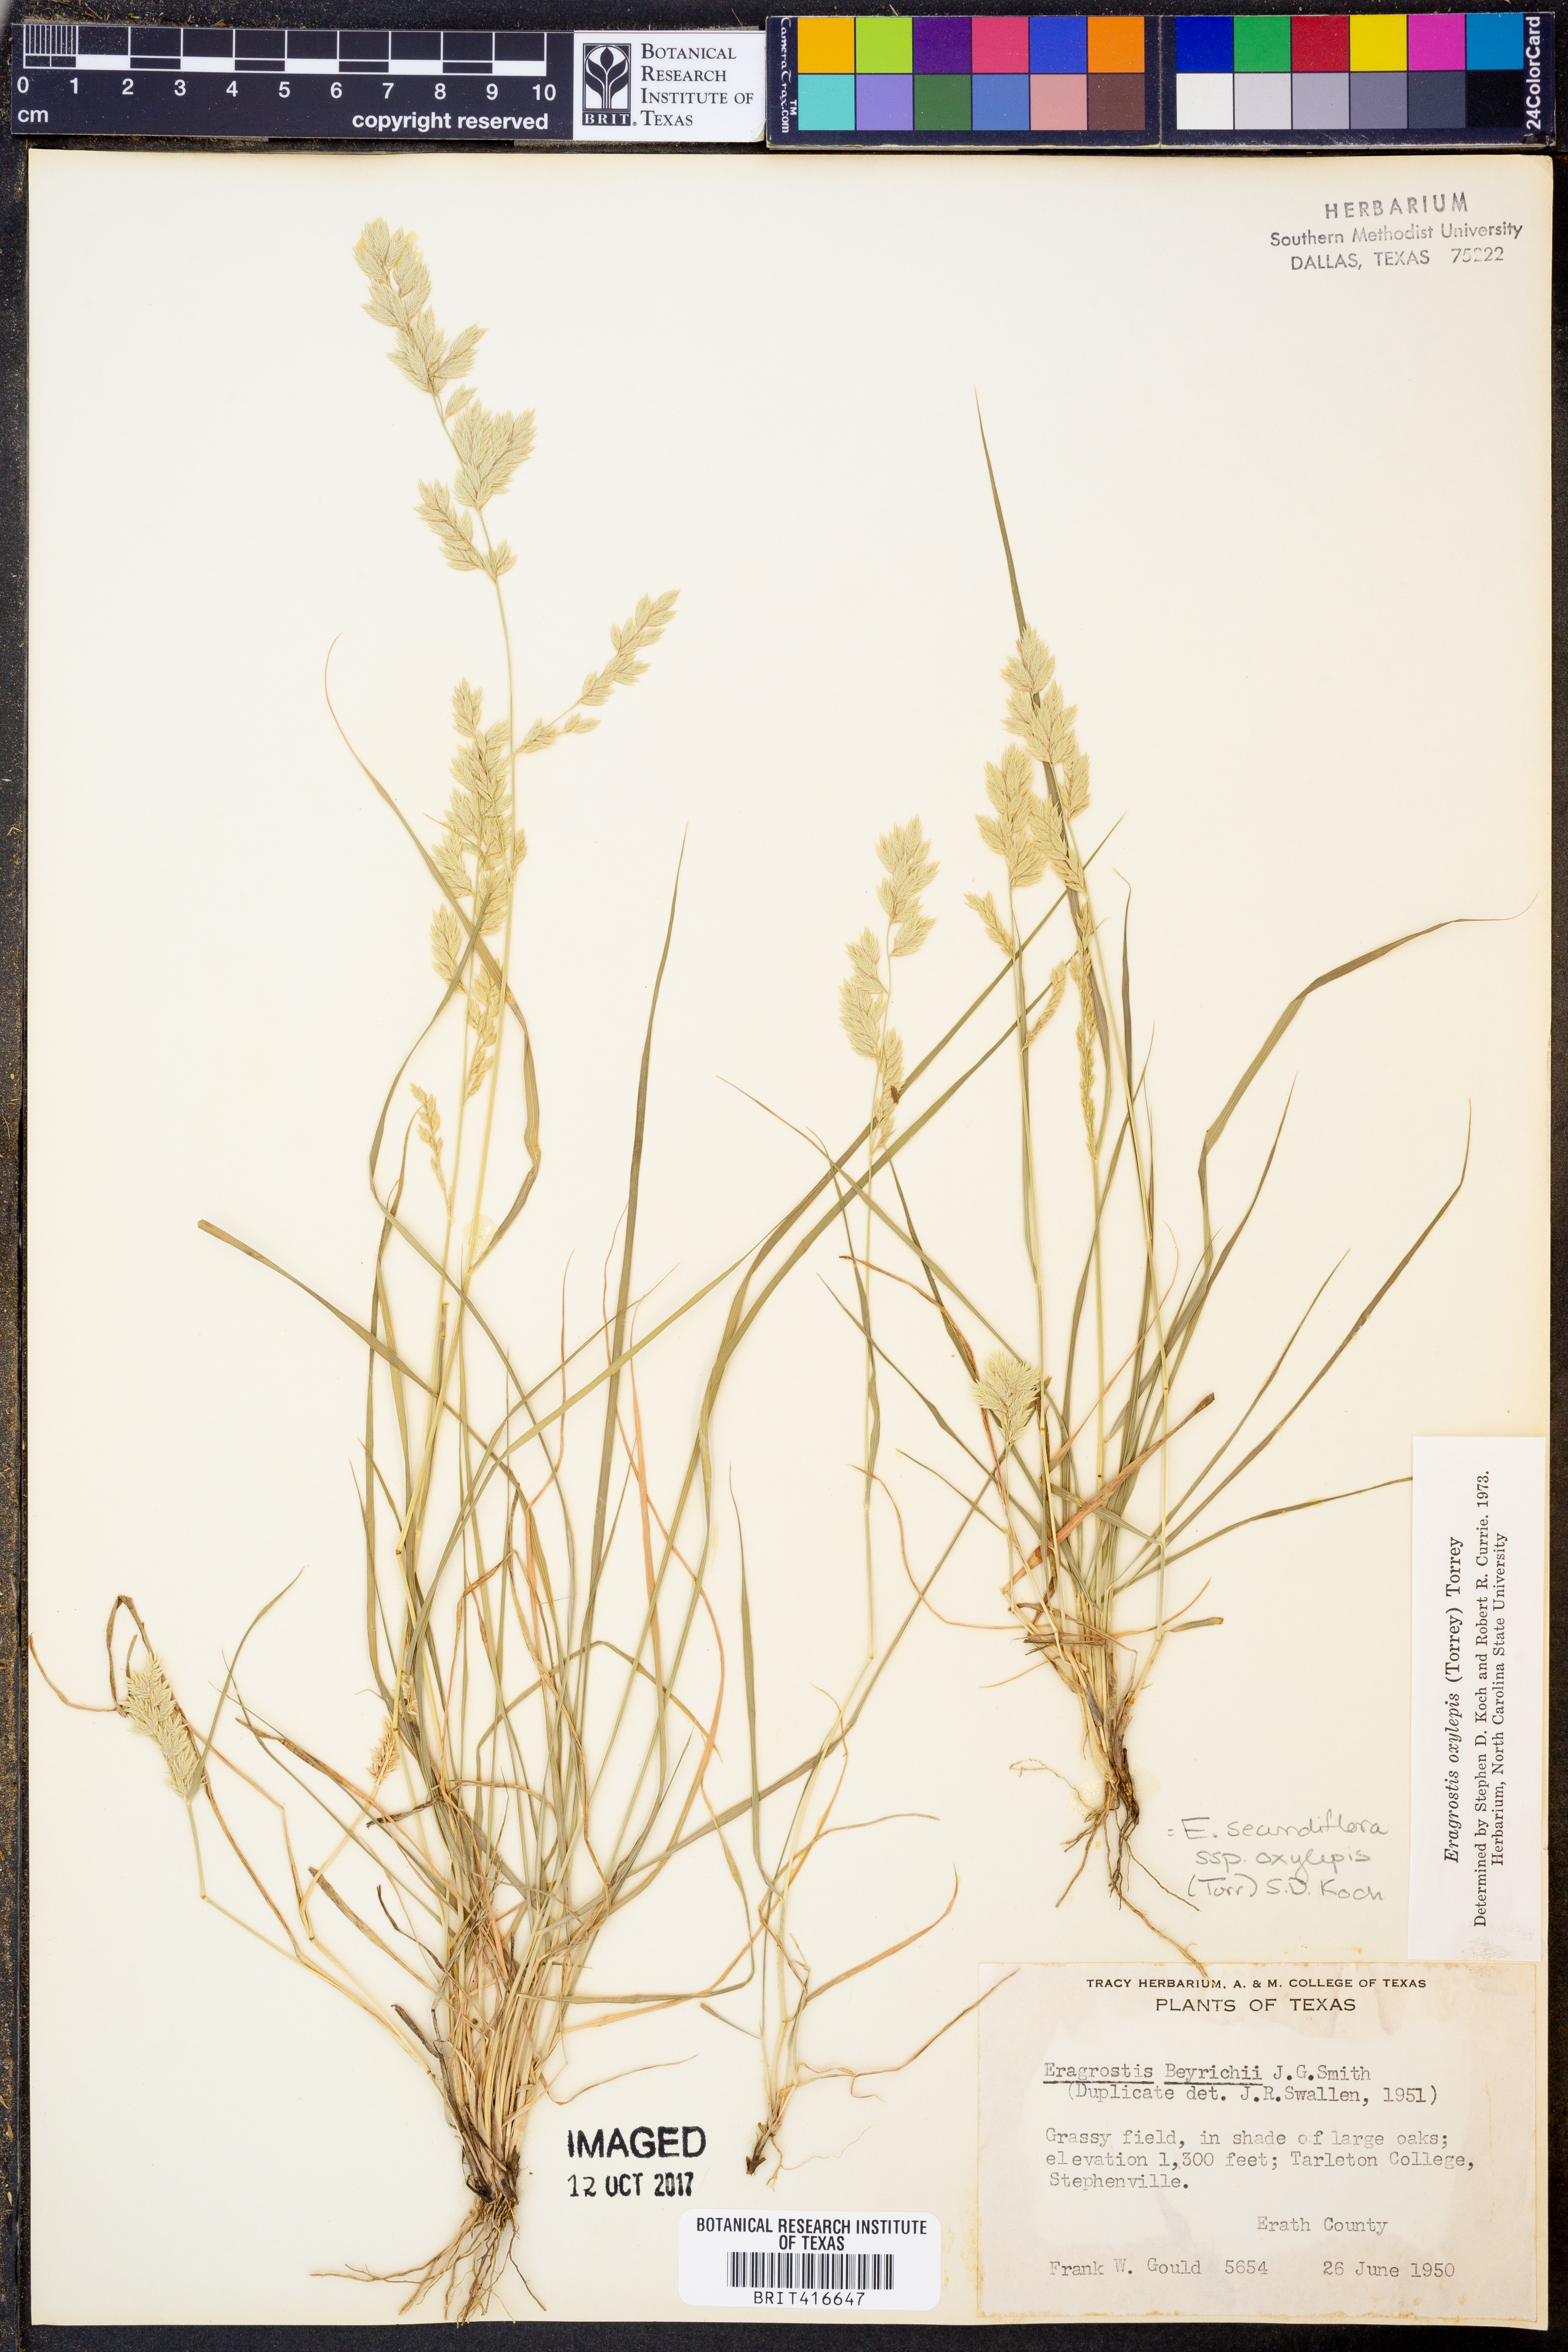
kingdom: Plantae
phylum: Tracheophyta
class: Liliopsida
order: Poales
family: Poaceae
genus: Eragrostis
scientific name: Eragrostis secundiflora
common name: Red love grass
